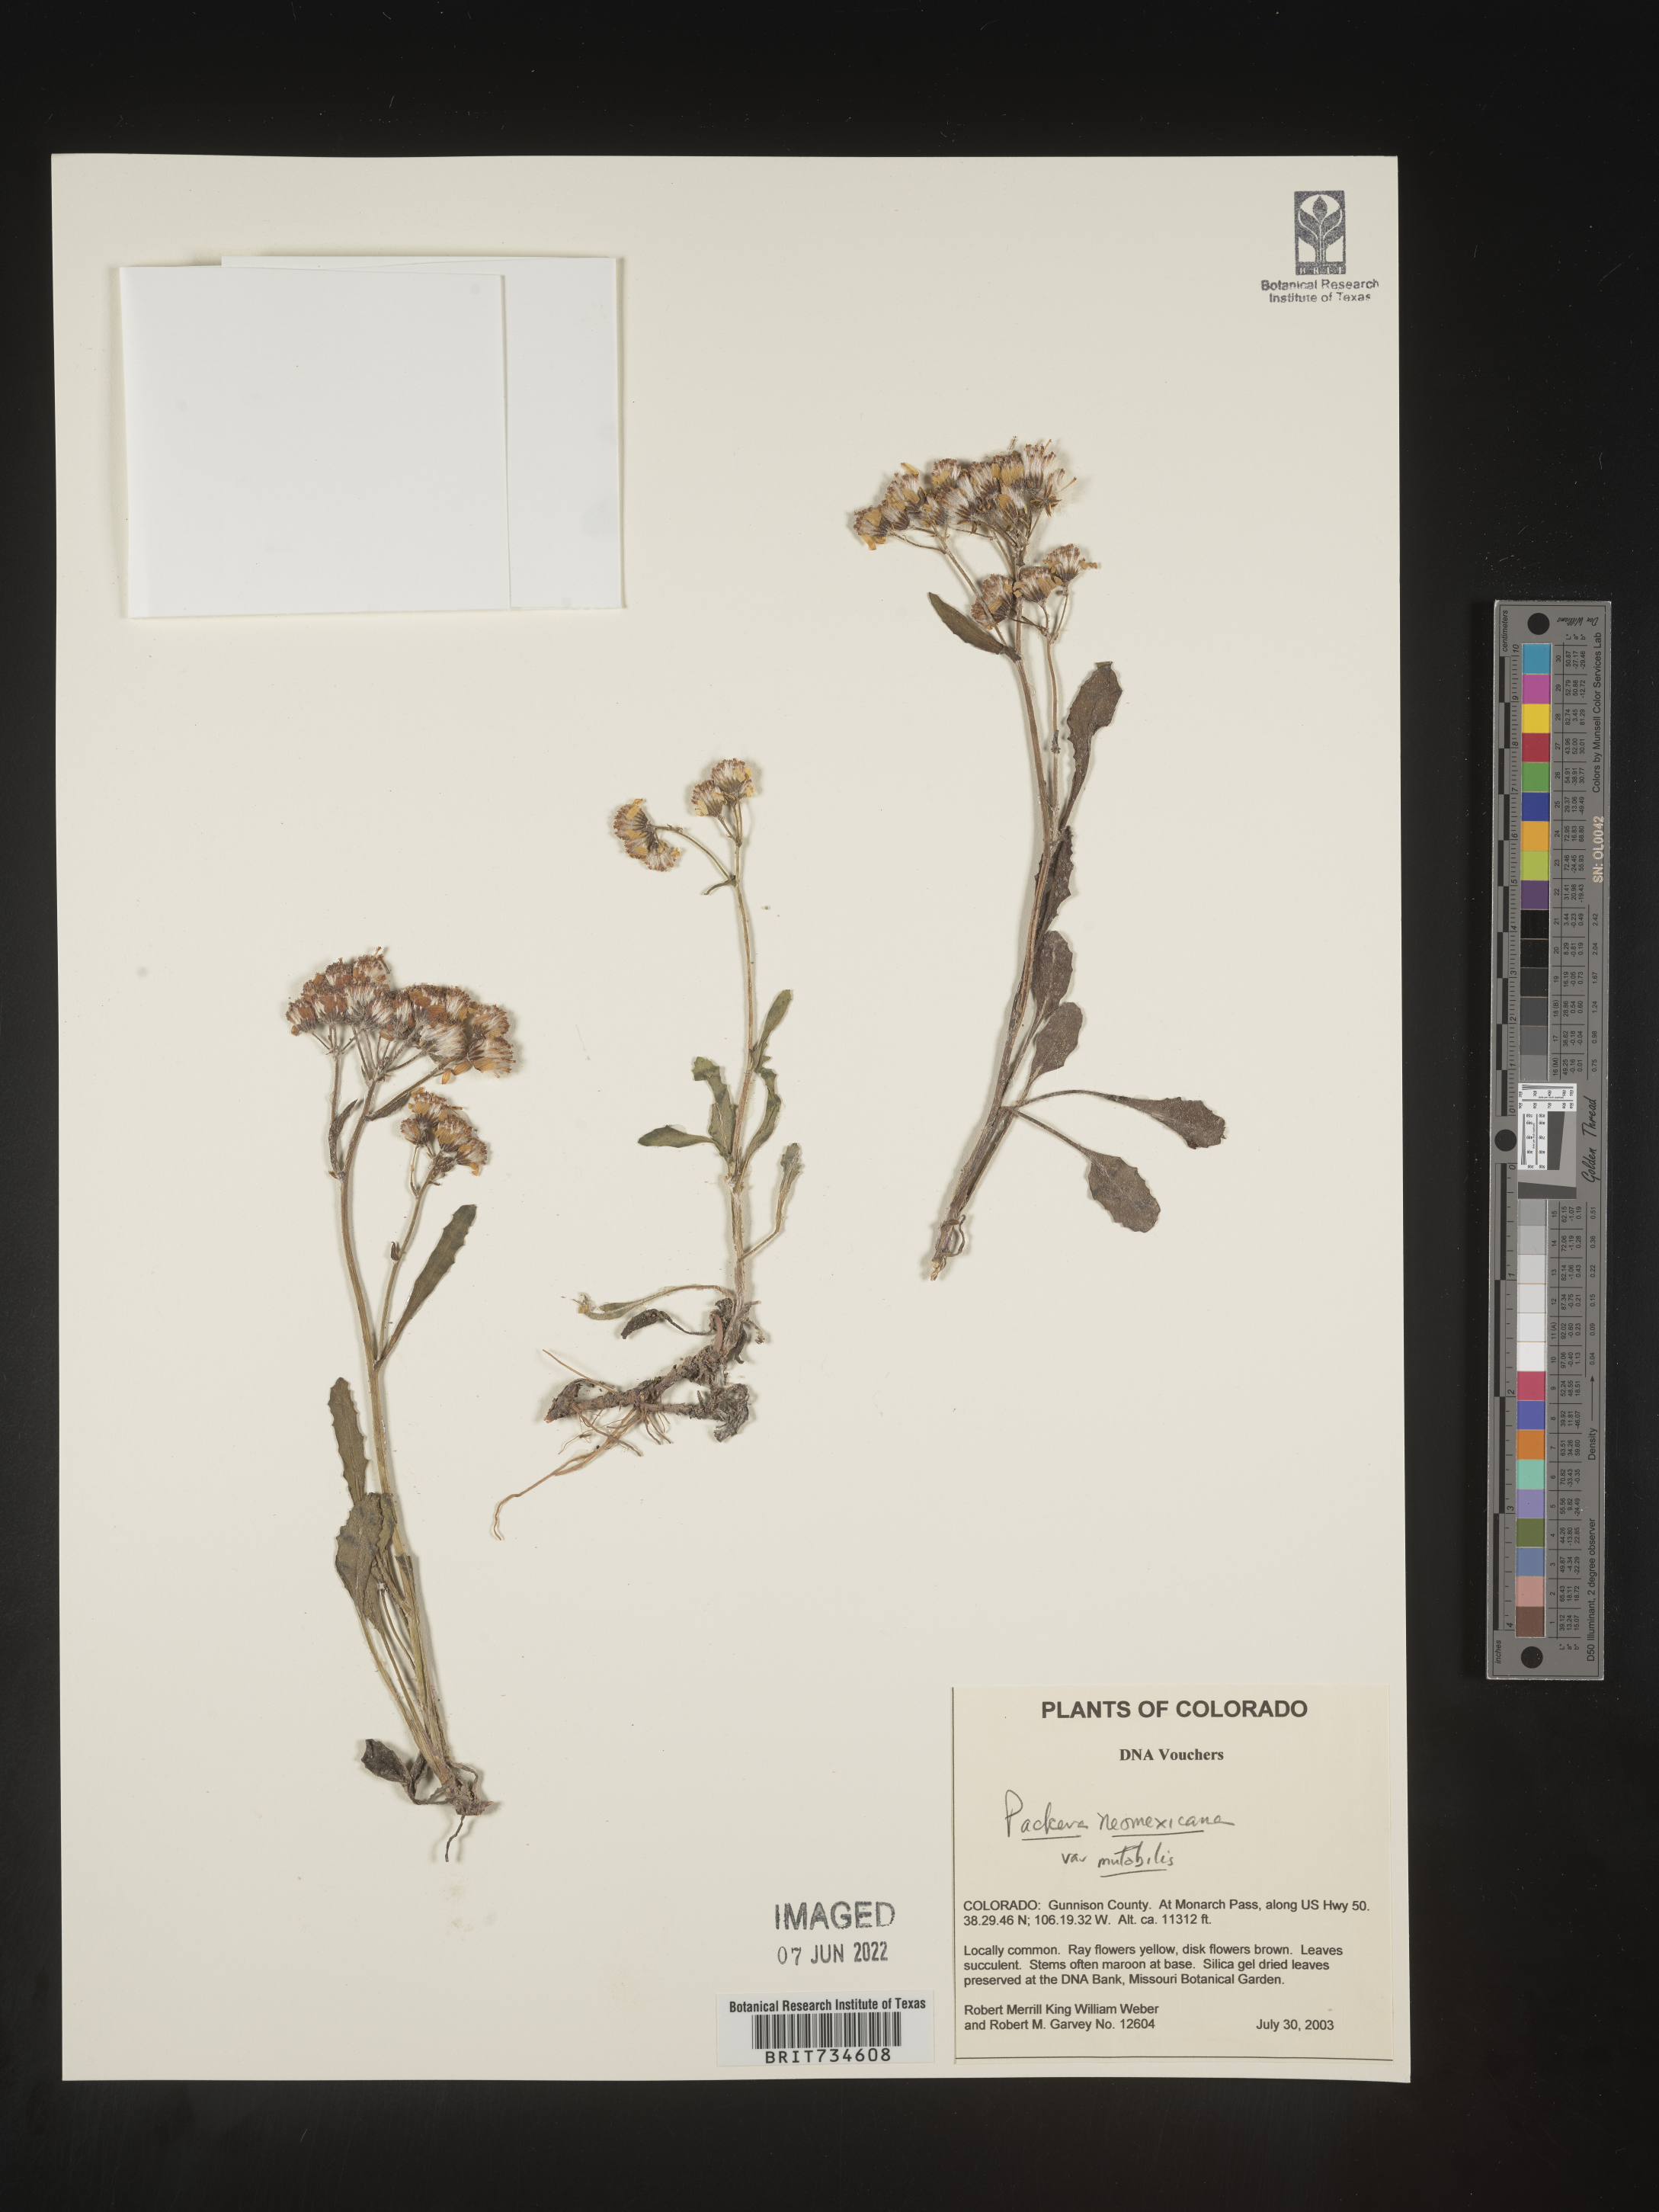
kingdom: Plantae
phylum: Tracheophyta
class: Magnoliopsida
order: Asterales
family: Asteraceae
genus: Packera
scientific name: Packera neomexicana
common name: New mexico butterweed
